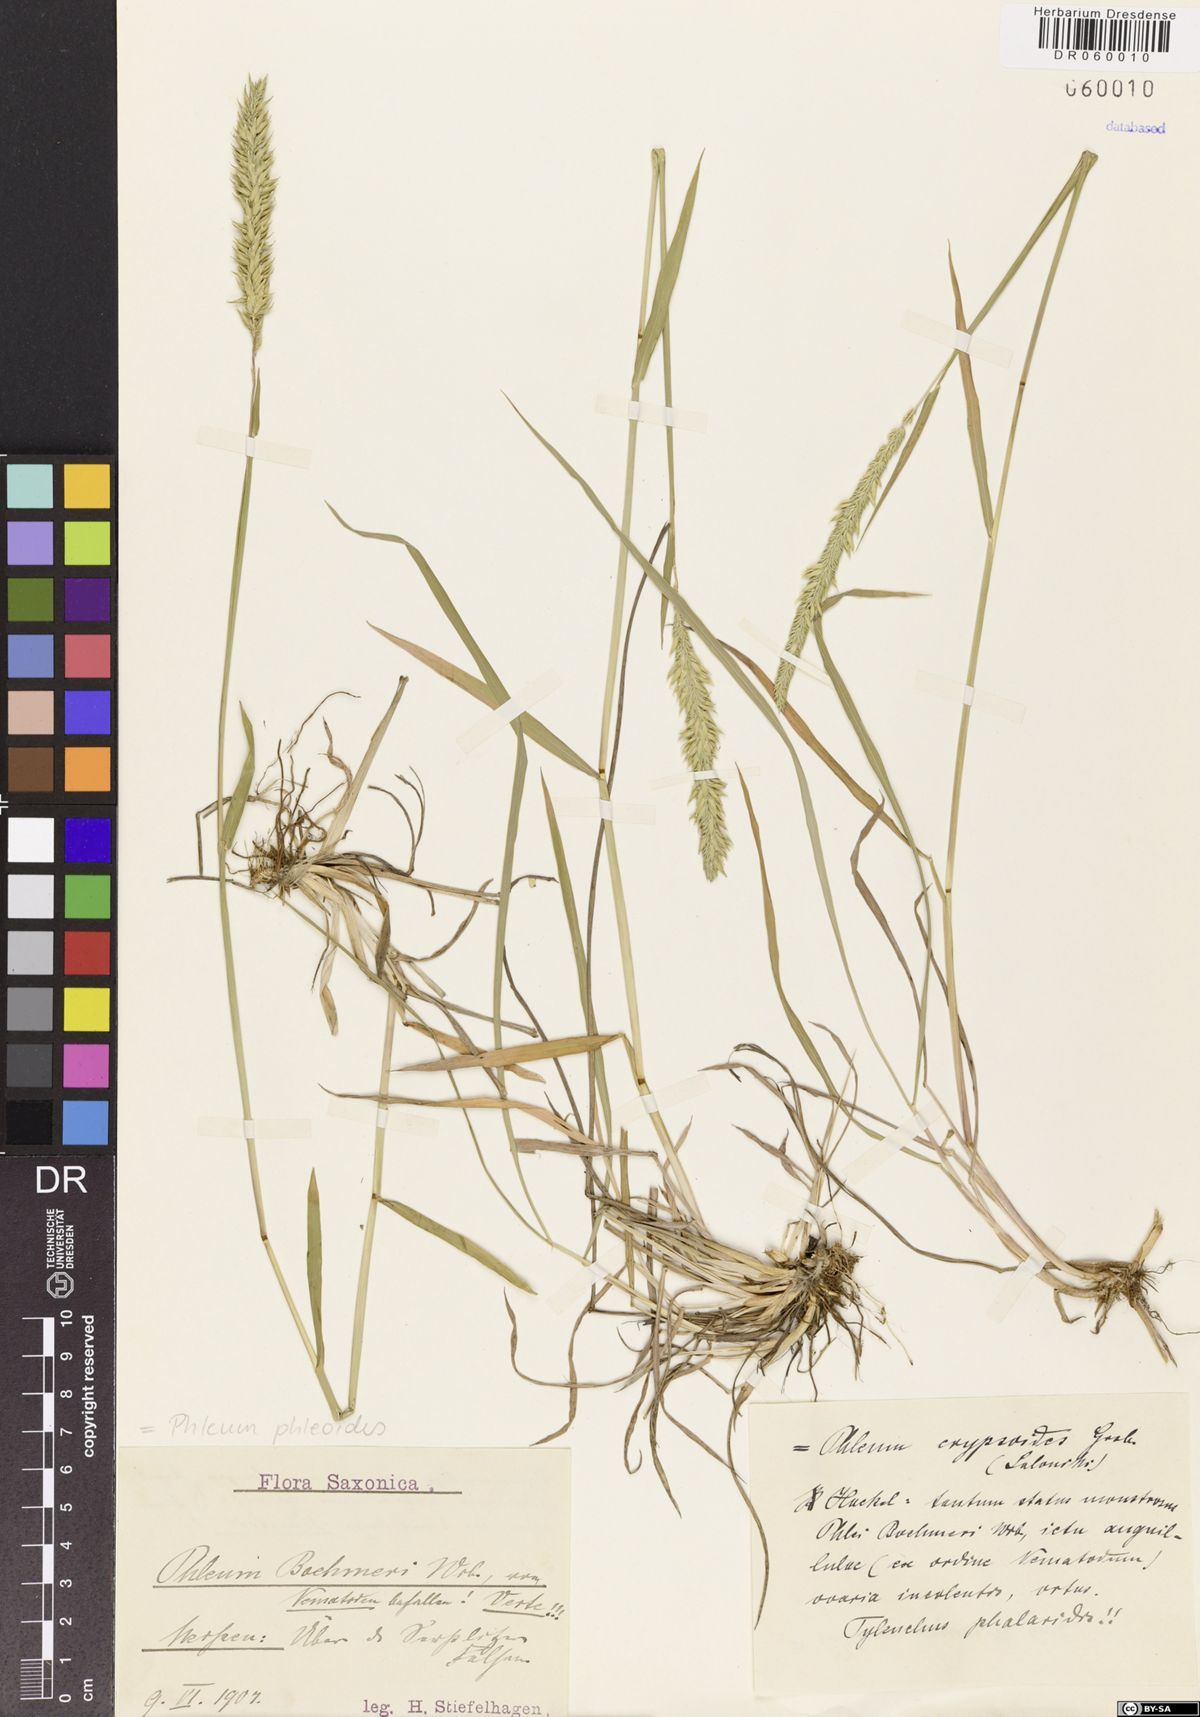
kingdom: Plantae
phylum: Tracheophyta
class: Liliopsida
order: Poales
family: Poaceae
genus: Phleum
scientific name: Phleum phleoides
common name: Purple-stem cat's-tail
